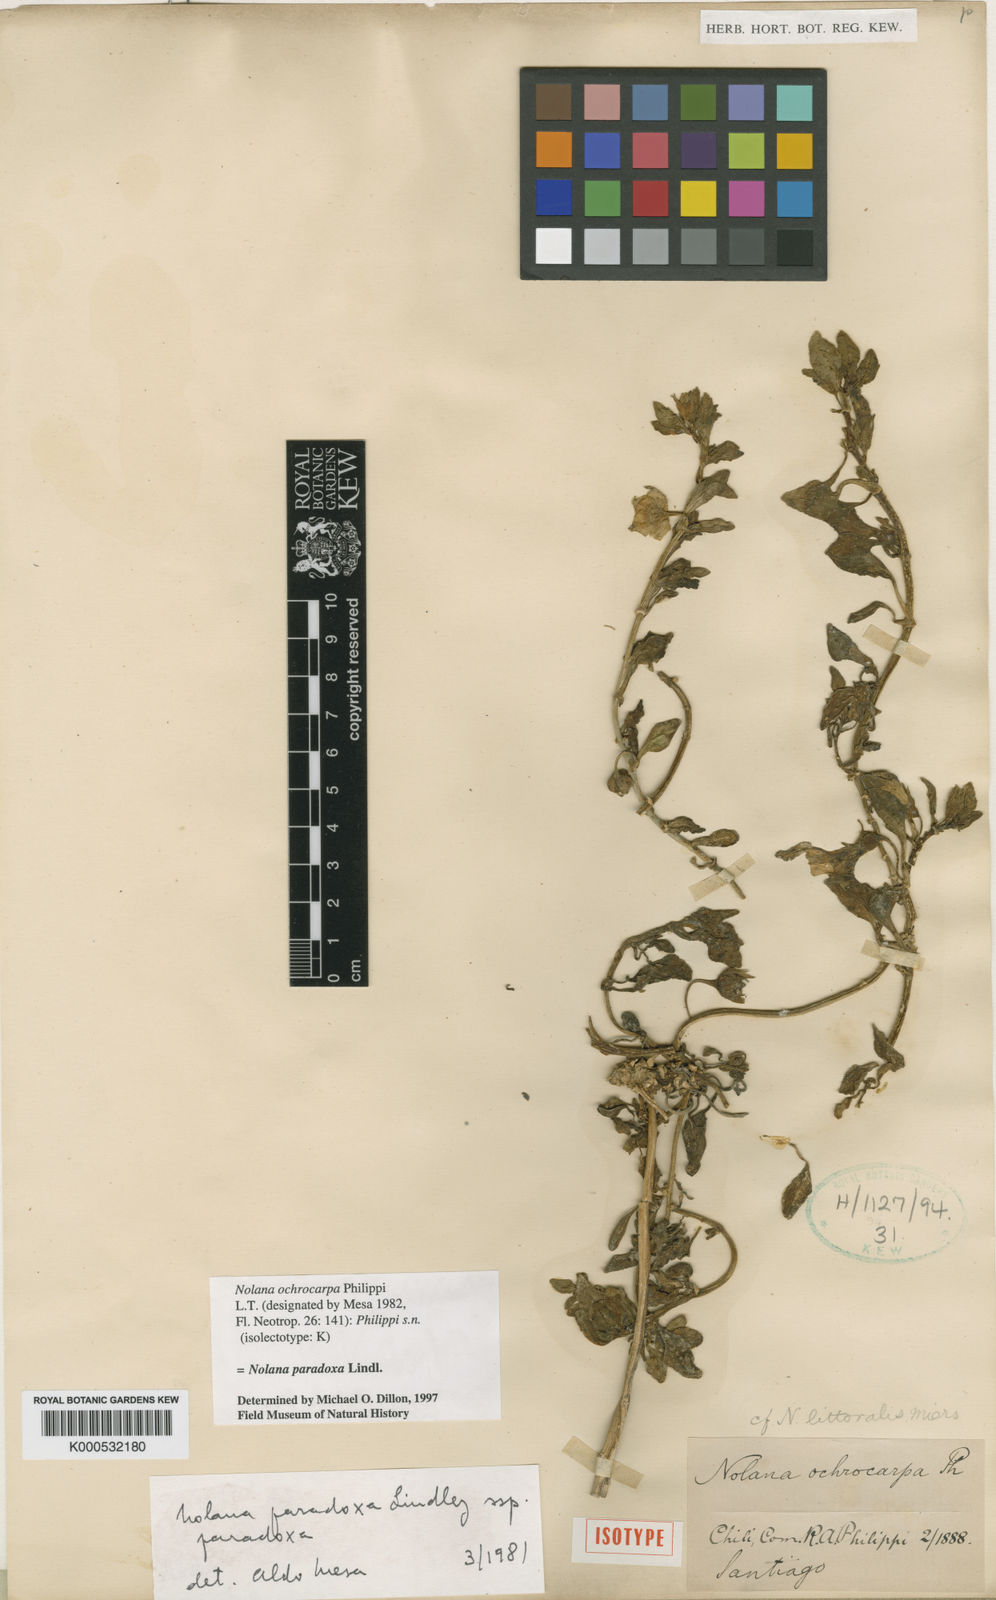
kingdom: Plantae
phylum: Tracheophyta
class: Magnoliopsida
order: Solanales
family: Solanaceae
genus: Nolana
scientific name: Nolana paradoxa
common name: Chilean-bellflower
